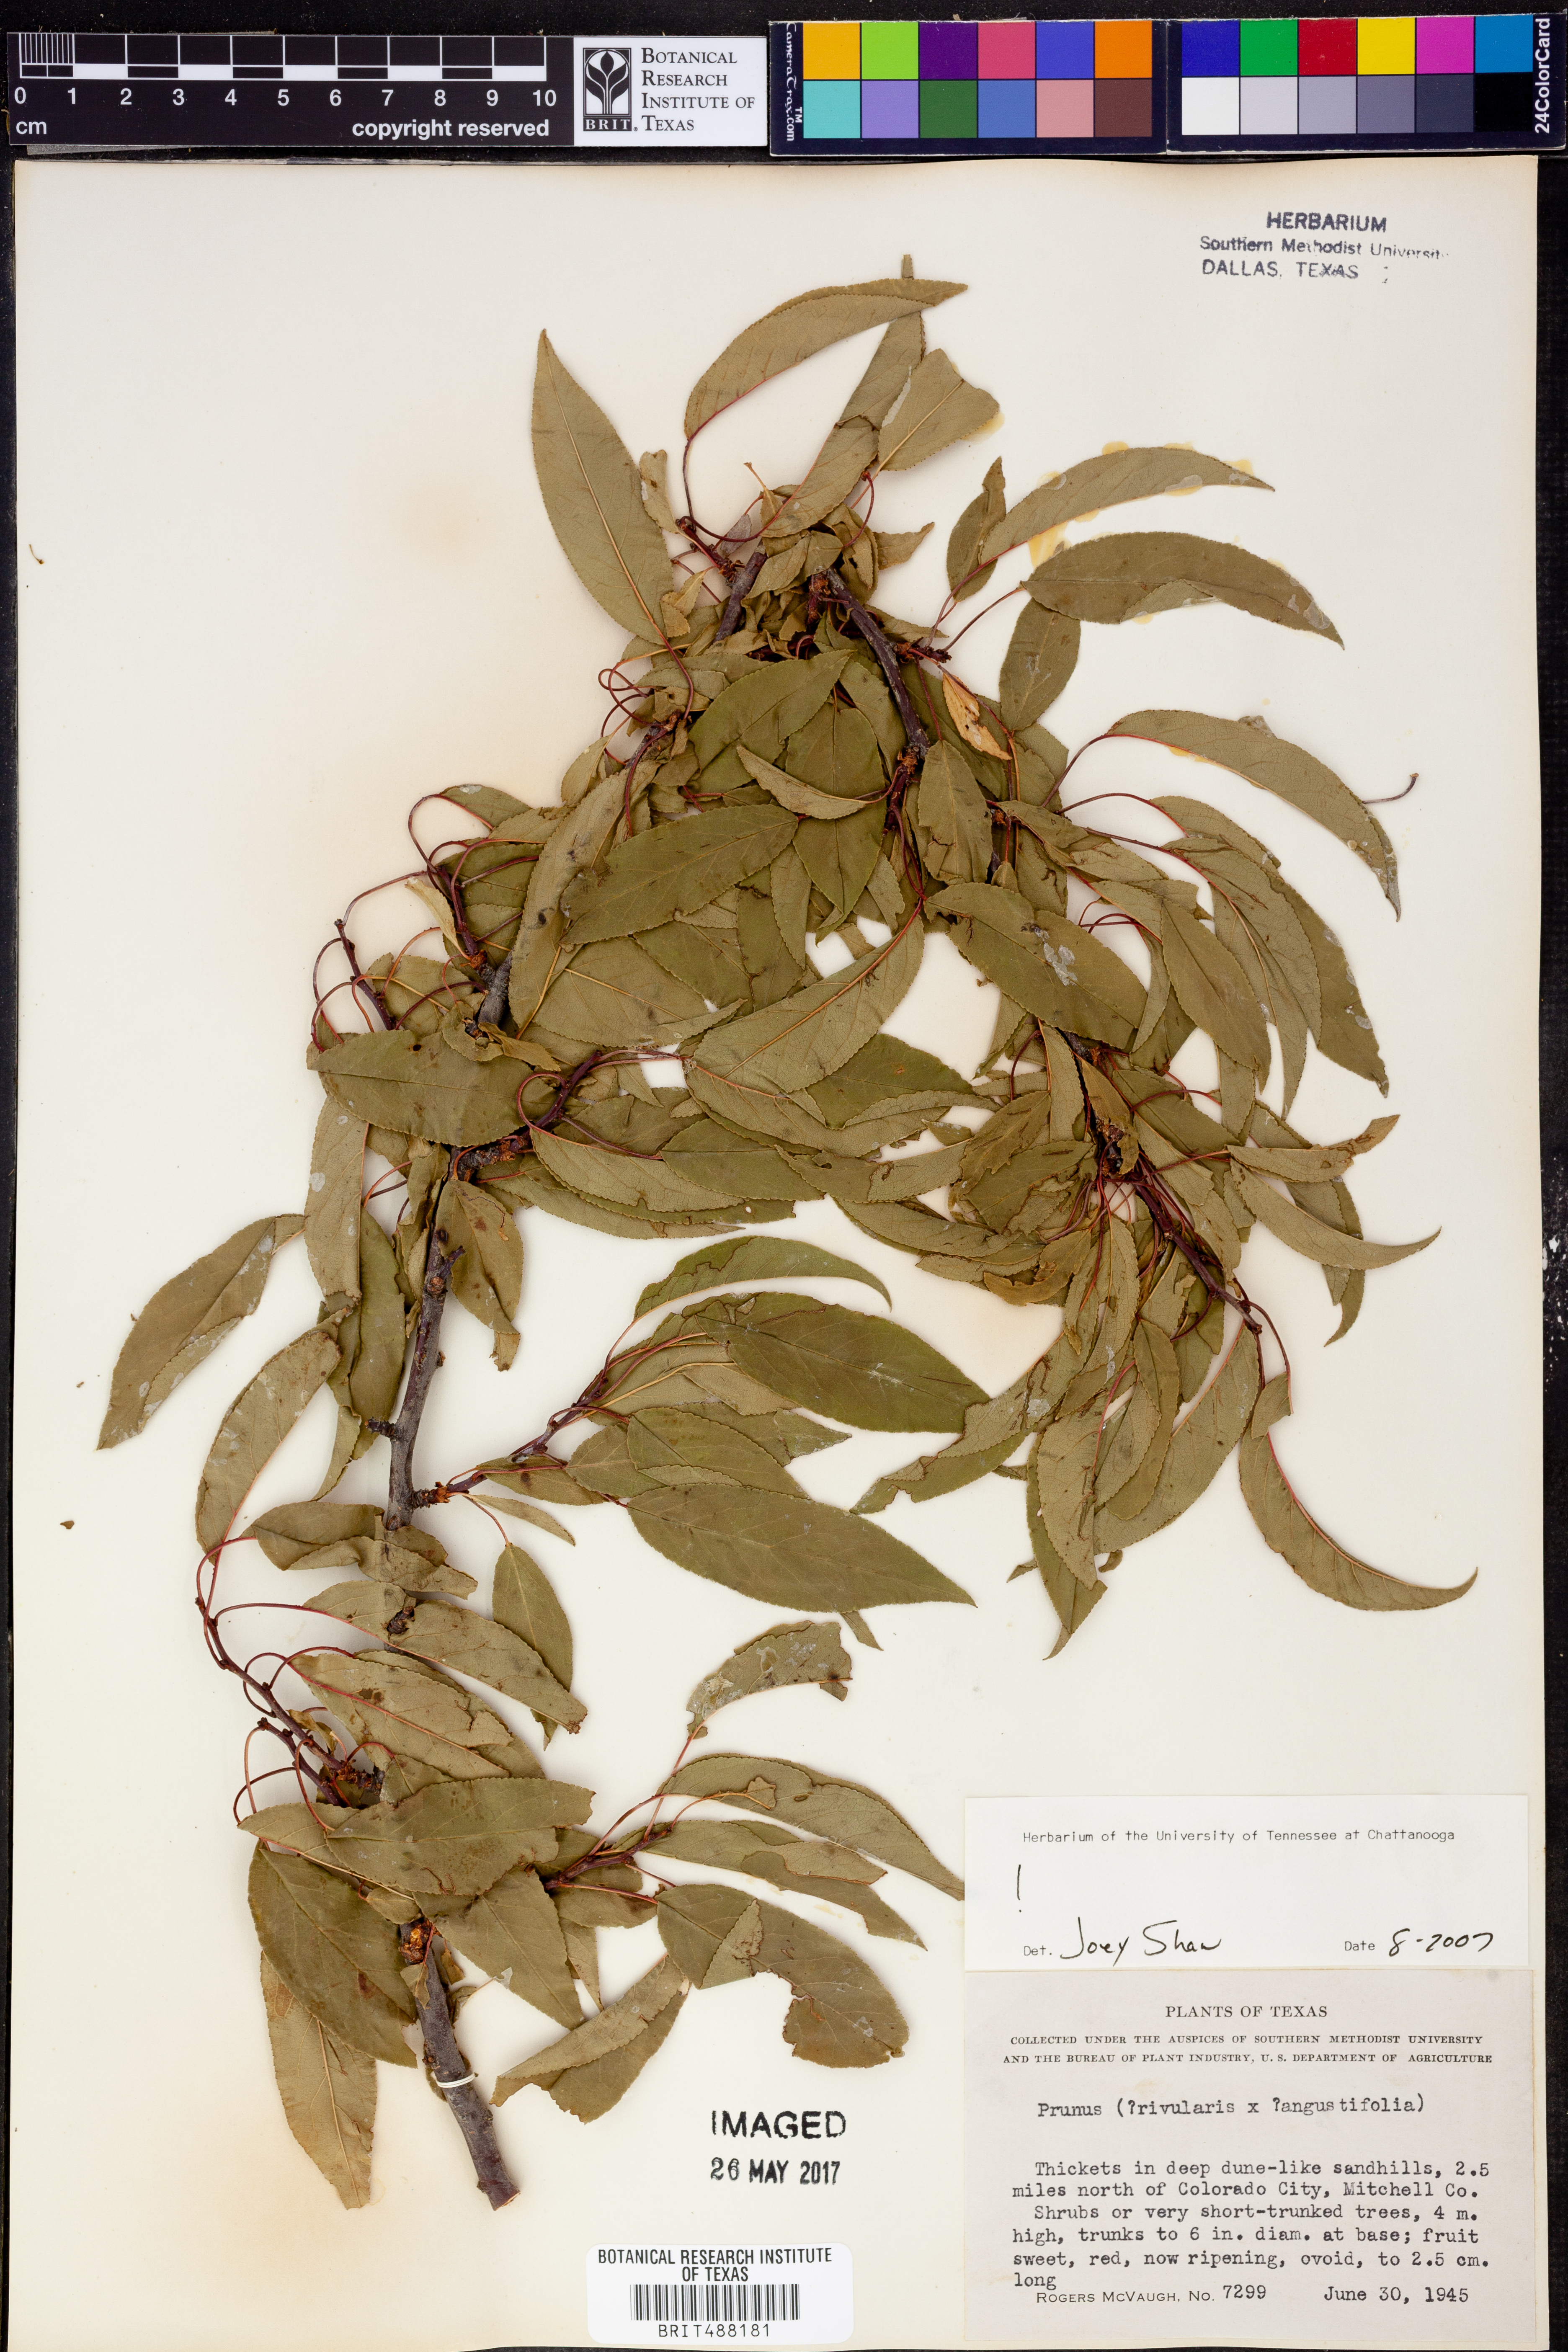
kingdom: Plantae
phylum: Tracheophyta
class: Magnoliopsida
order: Rosales
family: Rosaceae
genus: Prunus
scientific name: Prunus rivularis
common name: Creek plum
